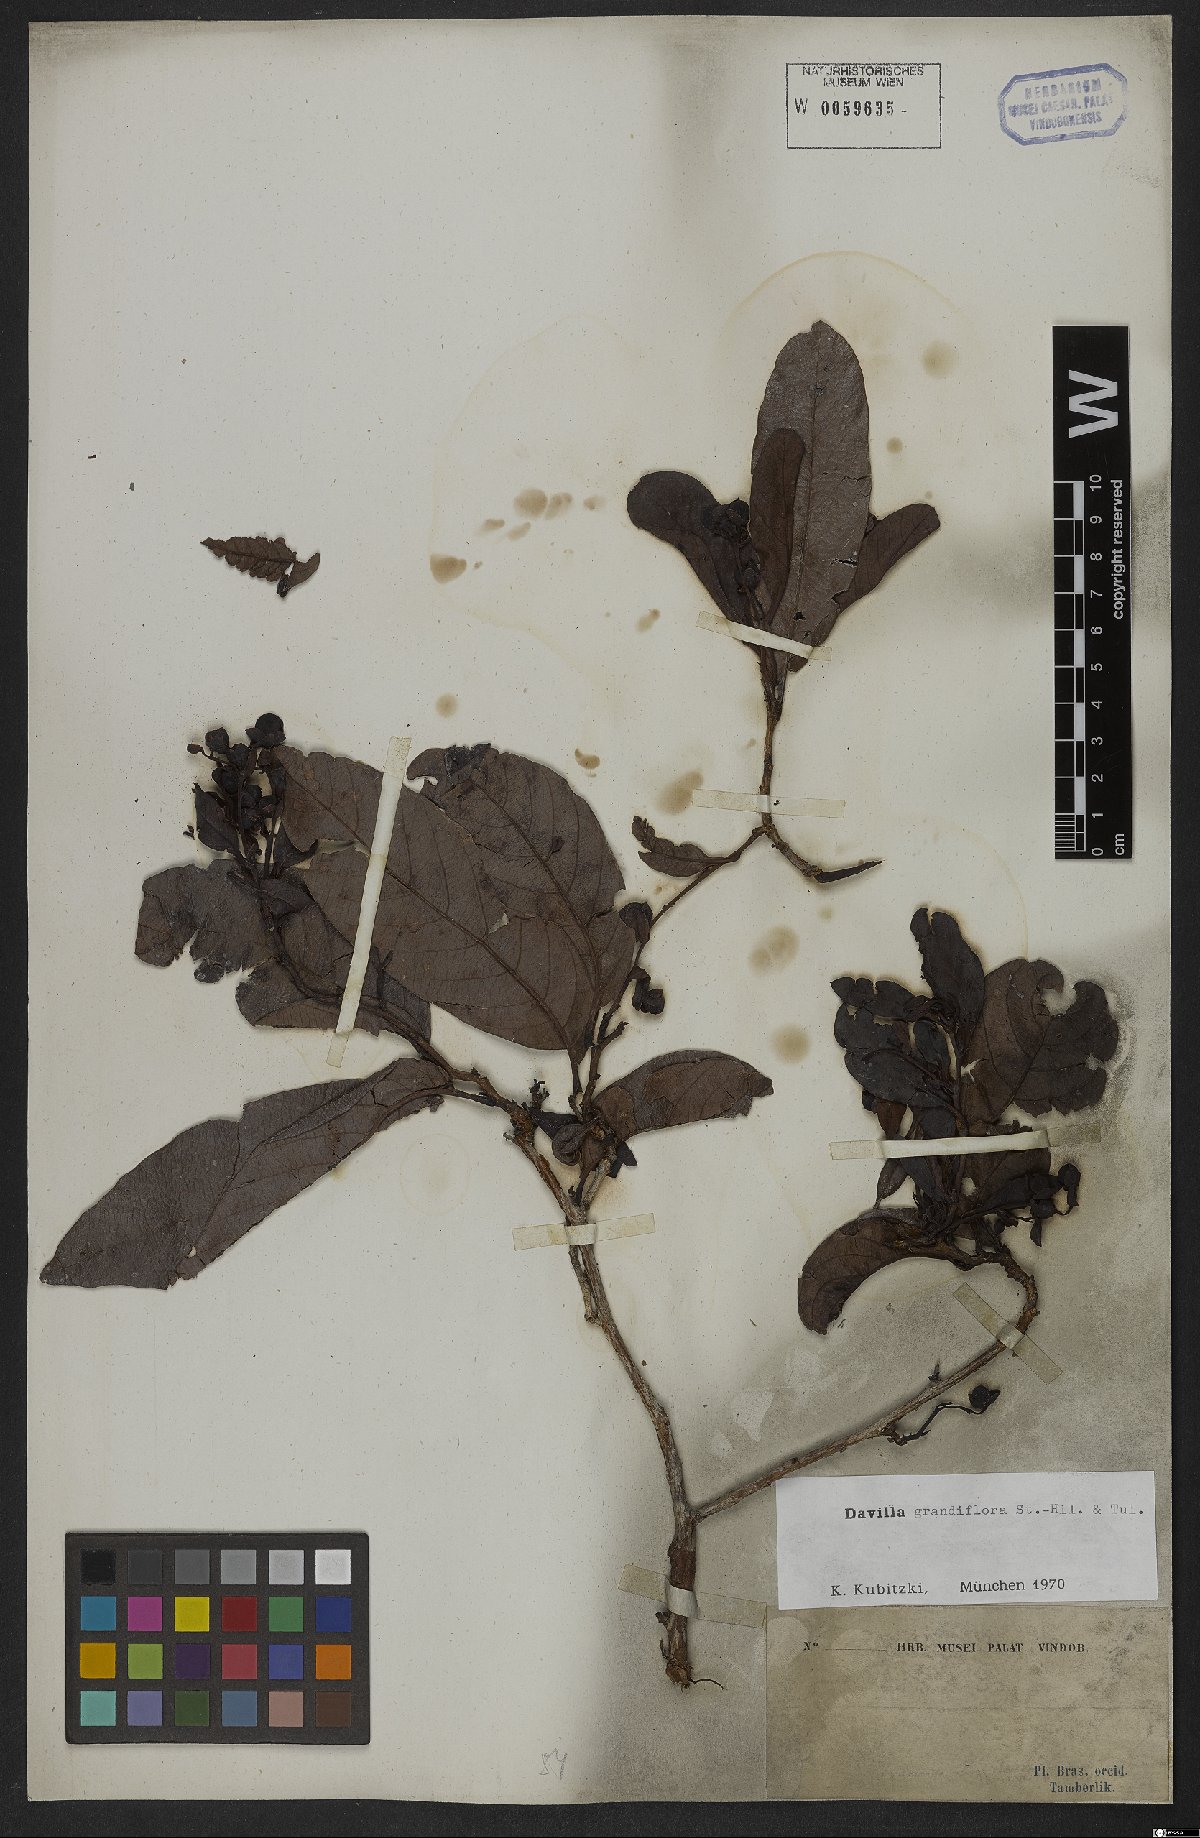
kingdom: Plantae
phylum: Tracheophyta
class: Magnoliopsida
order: Dilleniales
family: Dilleniaceae
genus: Davilla
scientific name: Davilla grandiflora
